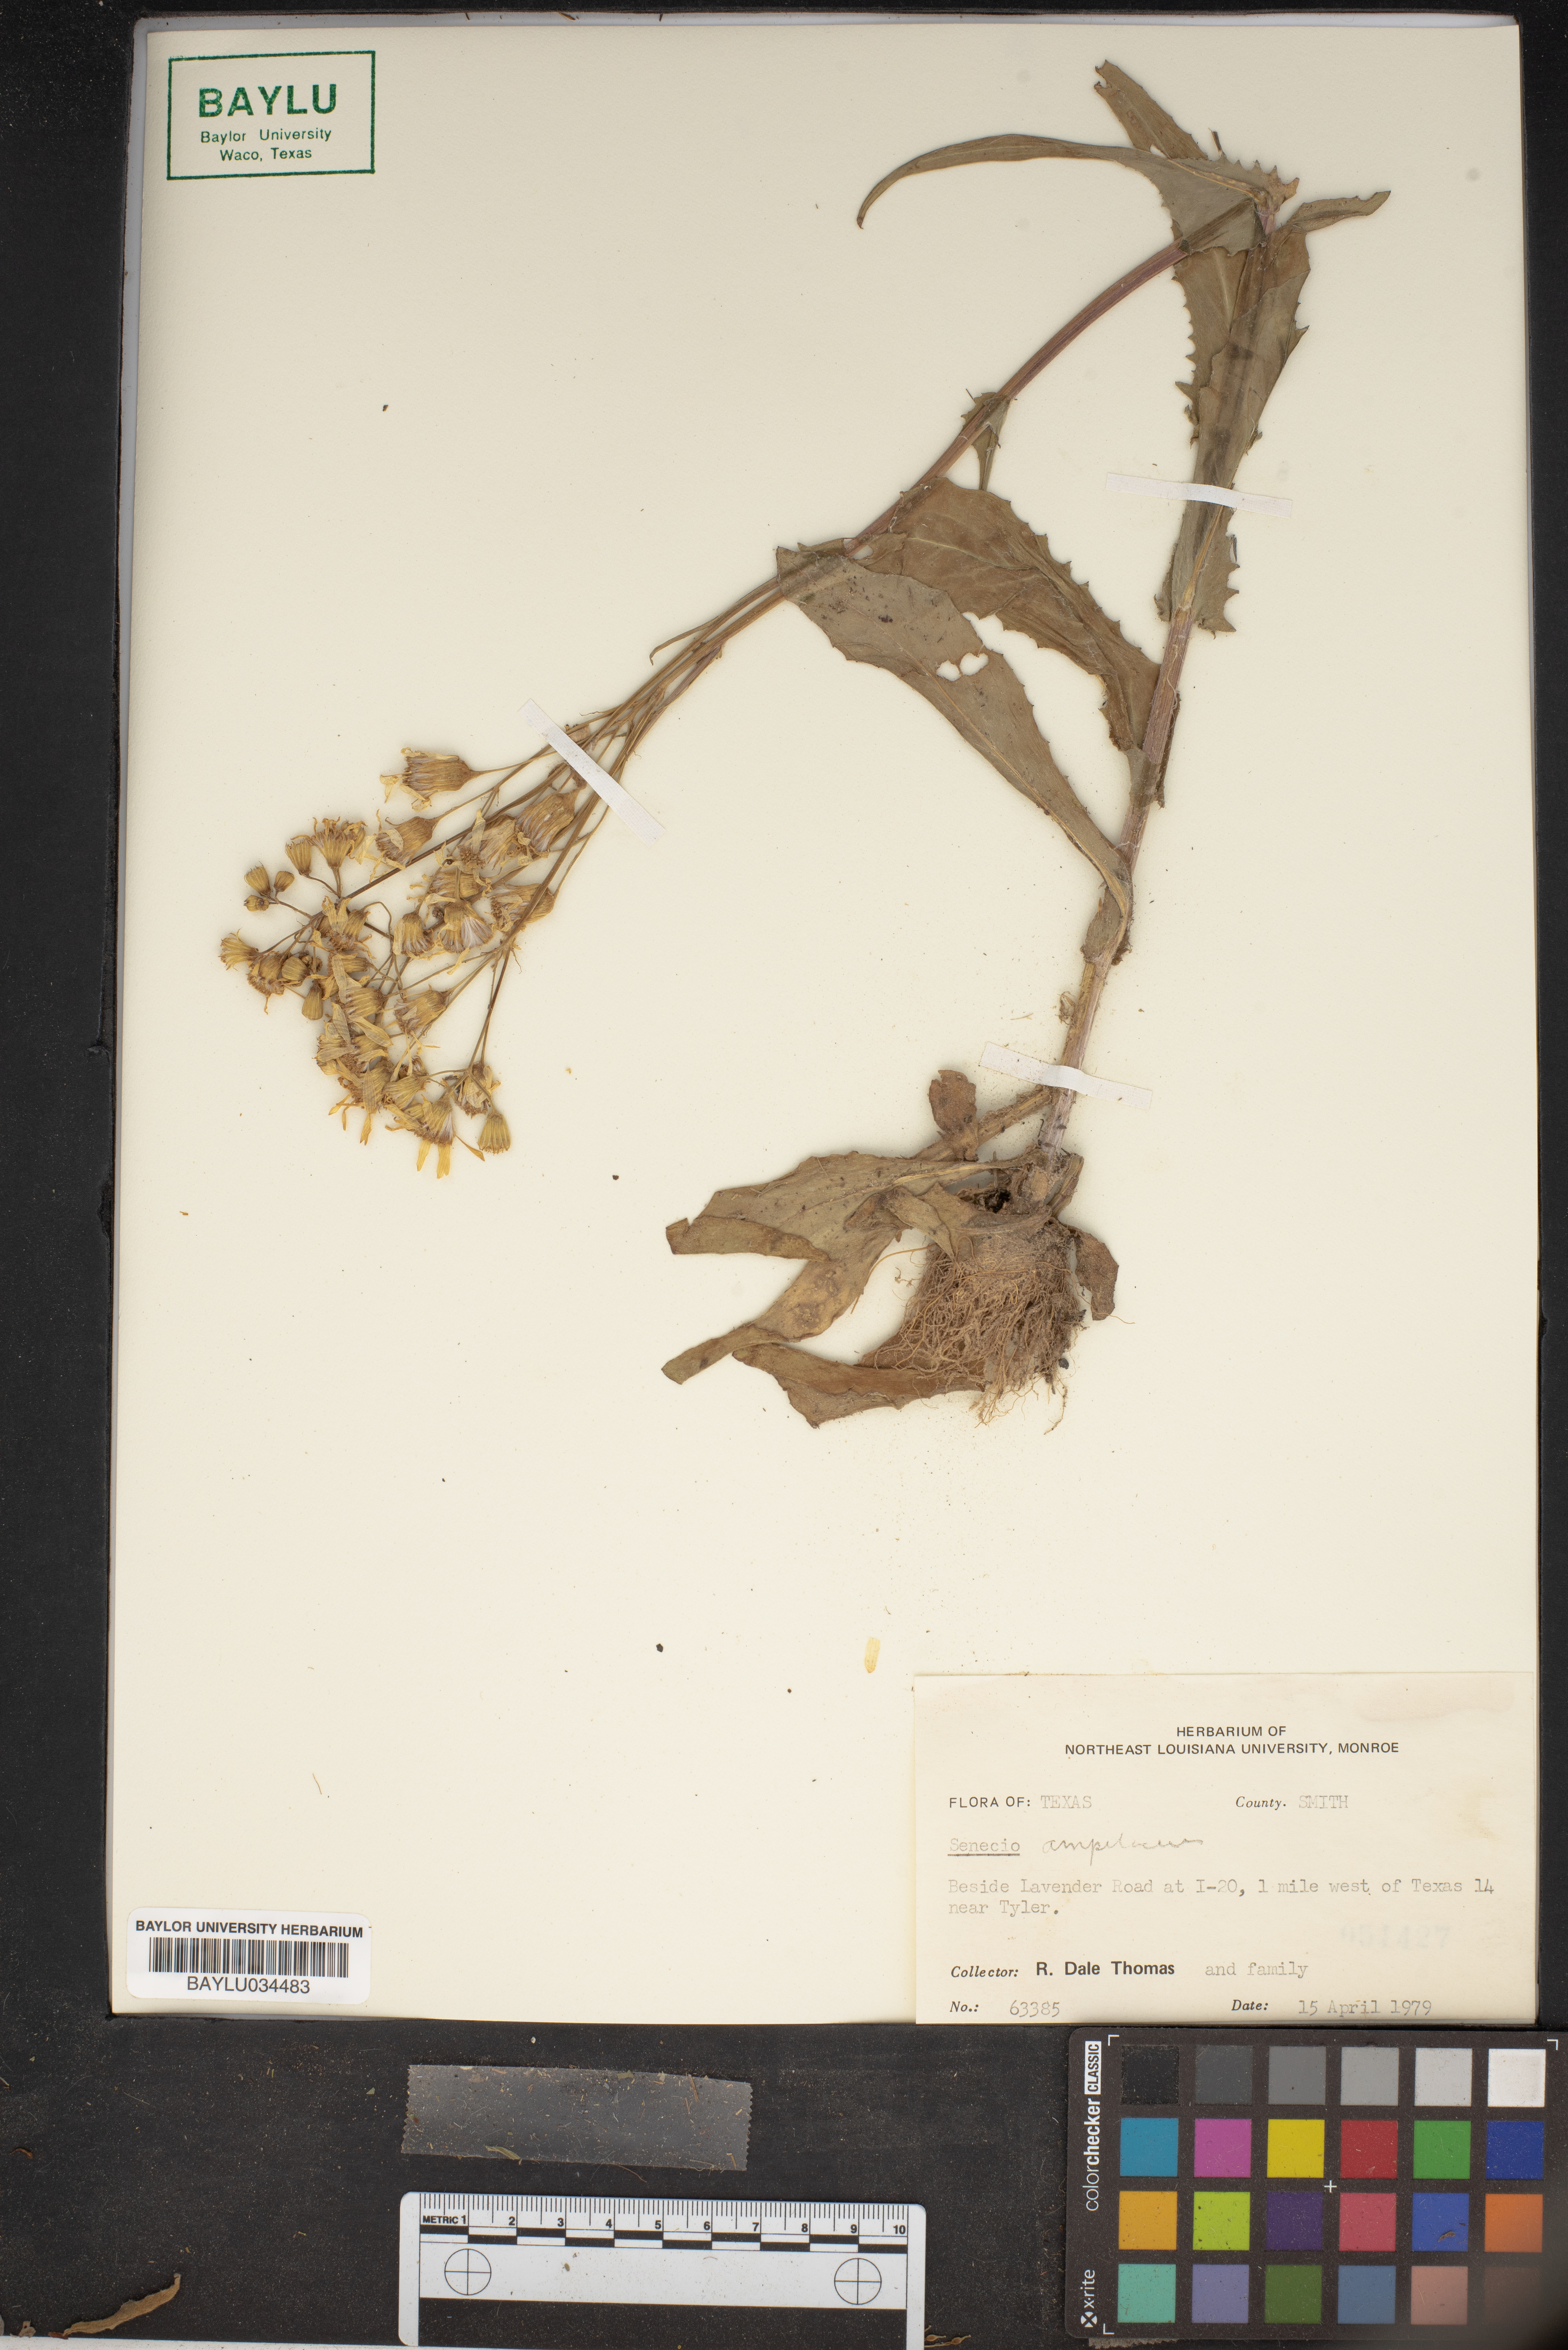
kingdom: Plantae
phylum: Tracheophyta
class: Magnoliopsida
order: Asterales
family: Asteraceae
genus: Senecio
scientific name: Senecio ampullaceus
